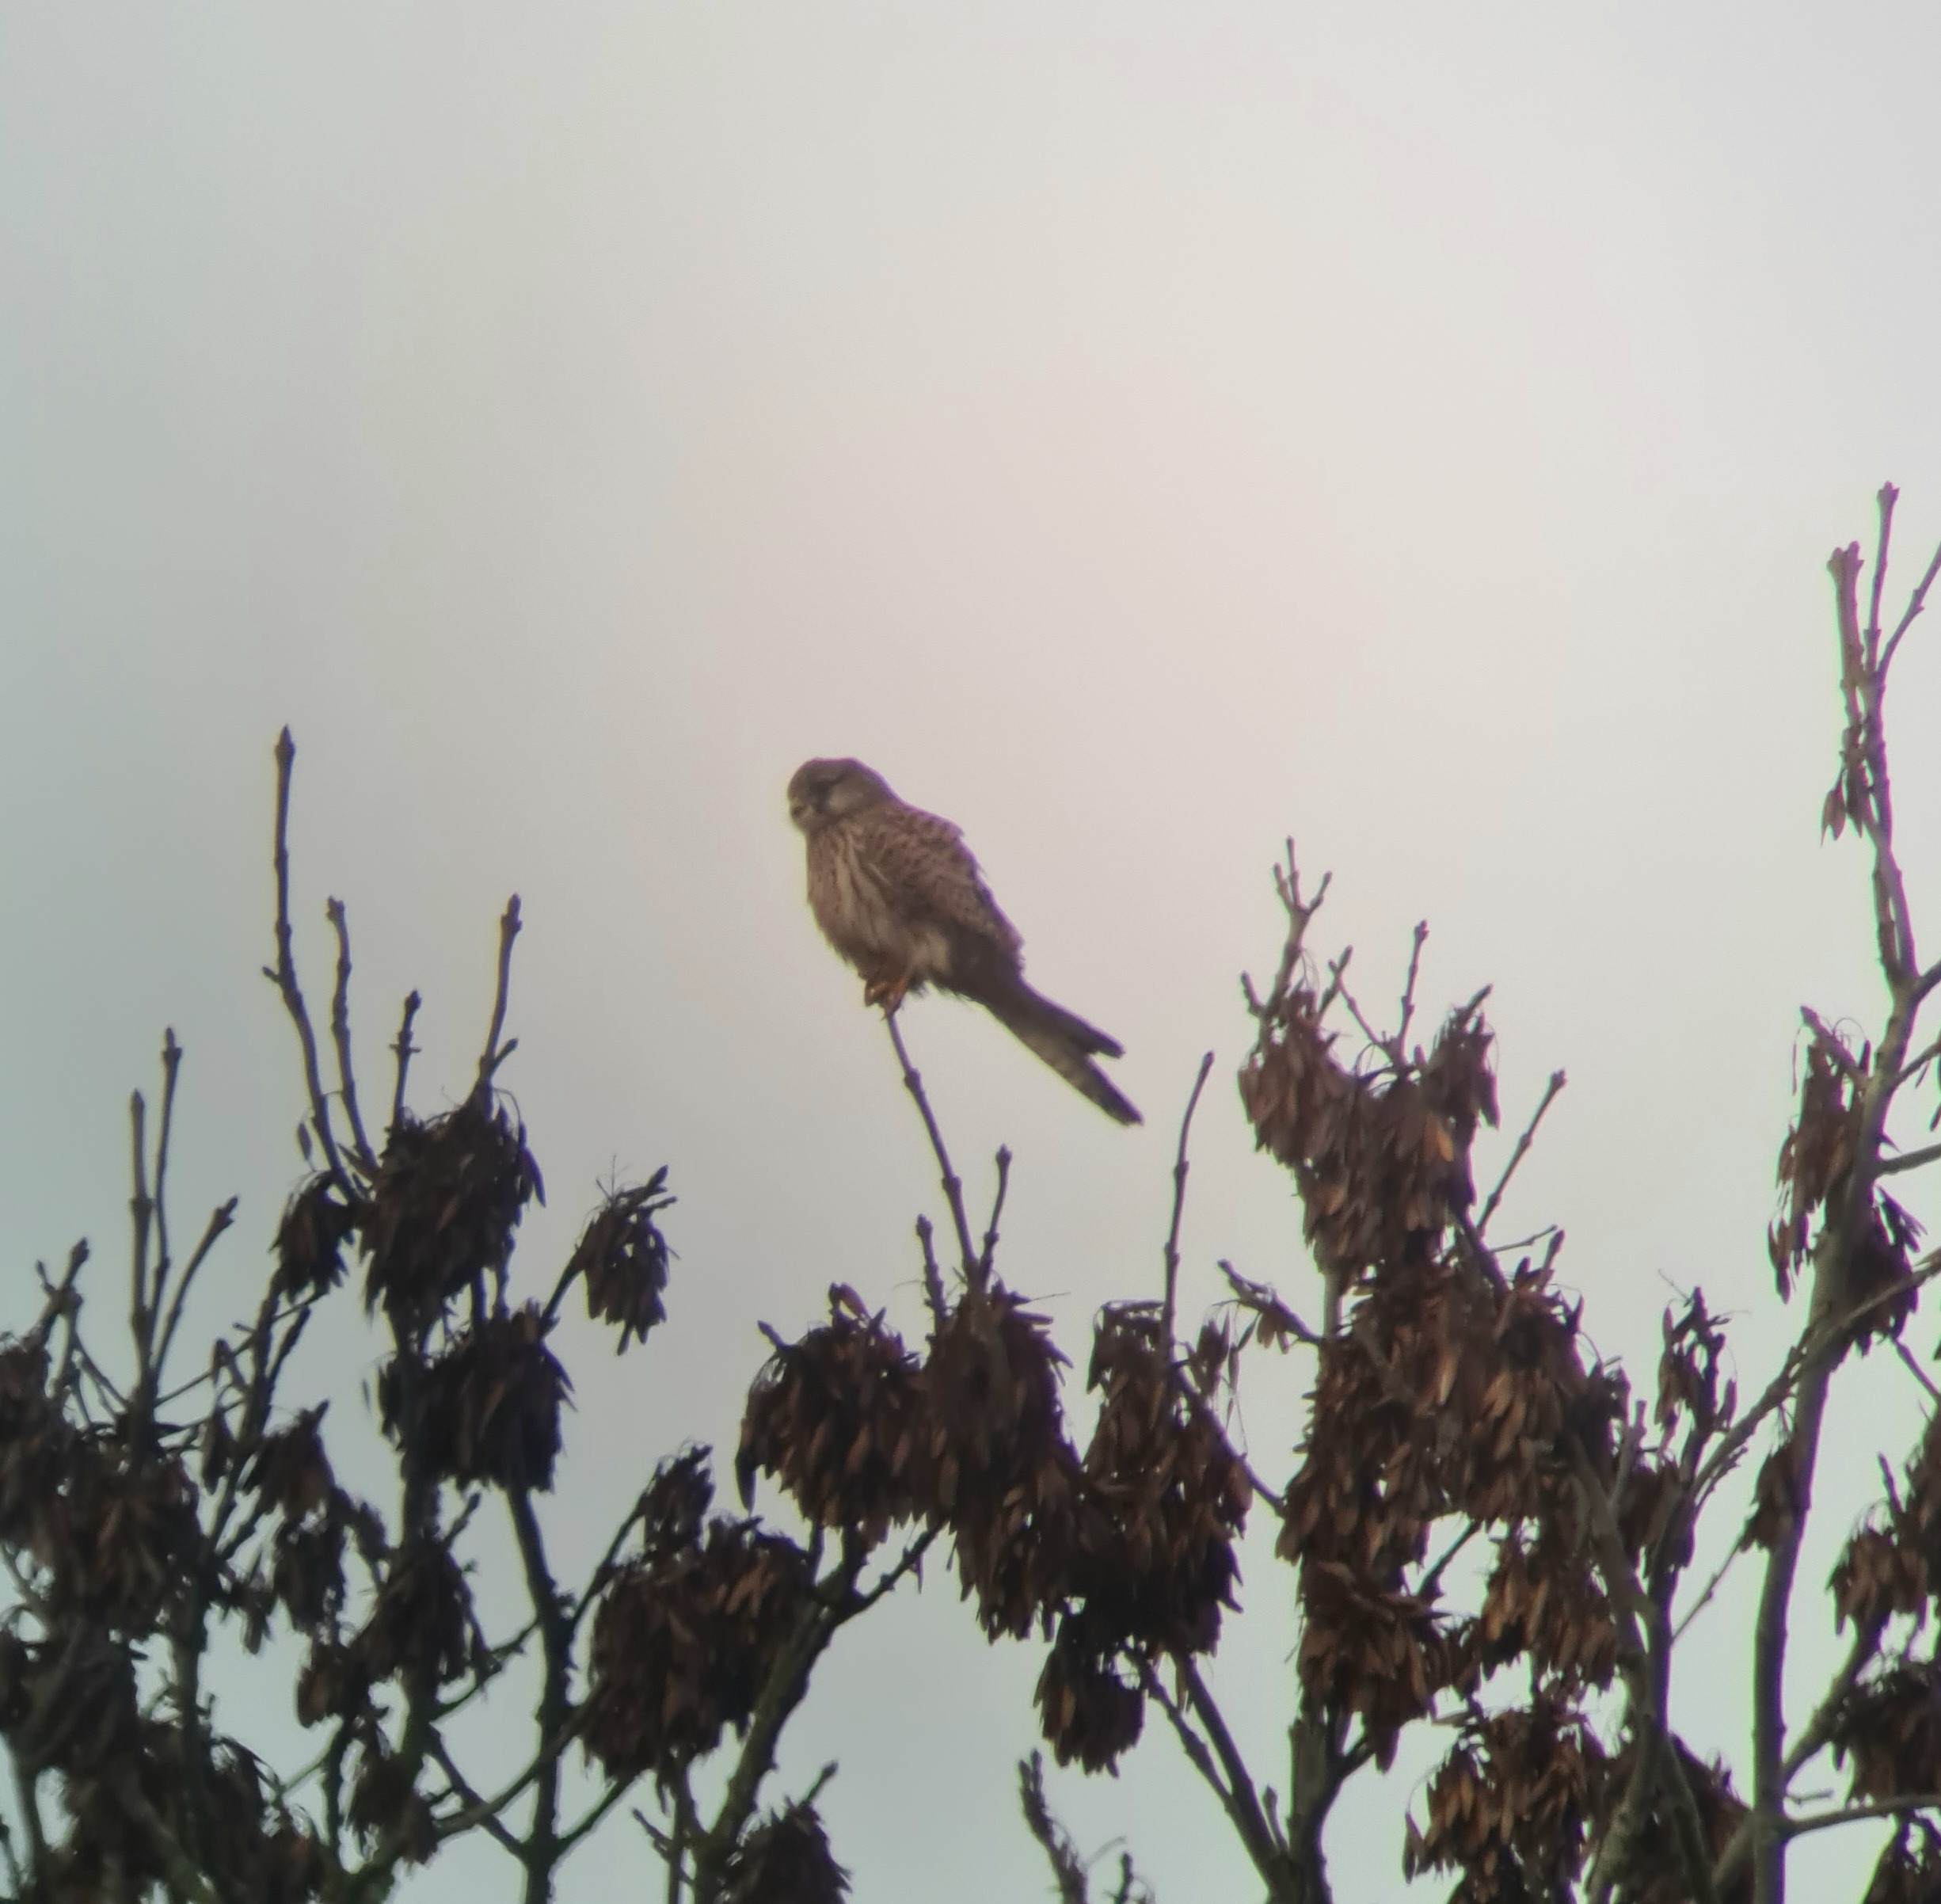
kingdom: Animalia
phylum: Chordata
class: Aves
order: Falconiformes
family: Falconidae
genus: Falco
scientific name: Falco tinnunculus
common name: Tårnfalk
